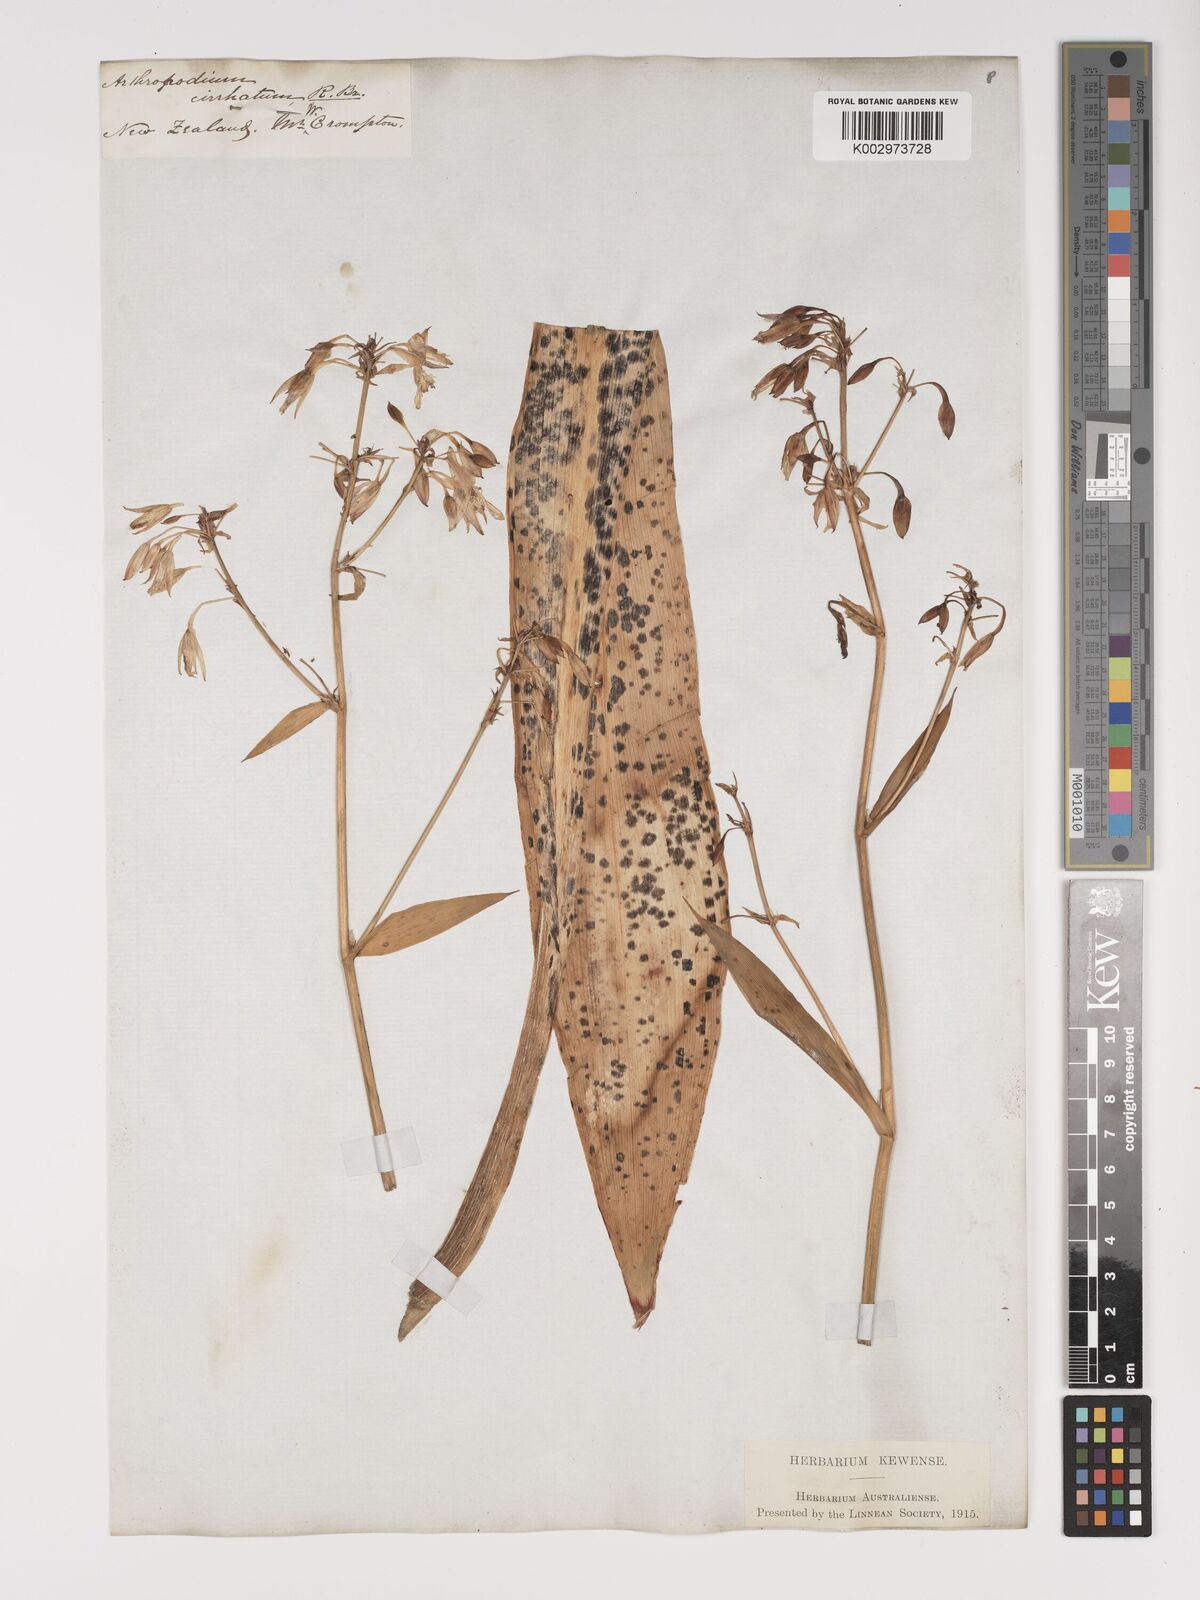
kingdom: Plantae
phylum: Tracheophyta
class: Liliopsida
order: Asparagales
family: Asparagaceae
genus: Arthropodium
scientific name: Arthropodium
